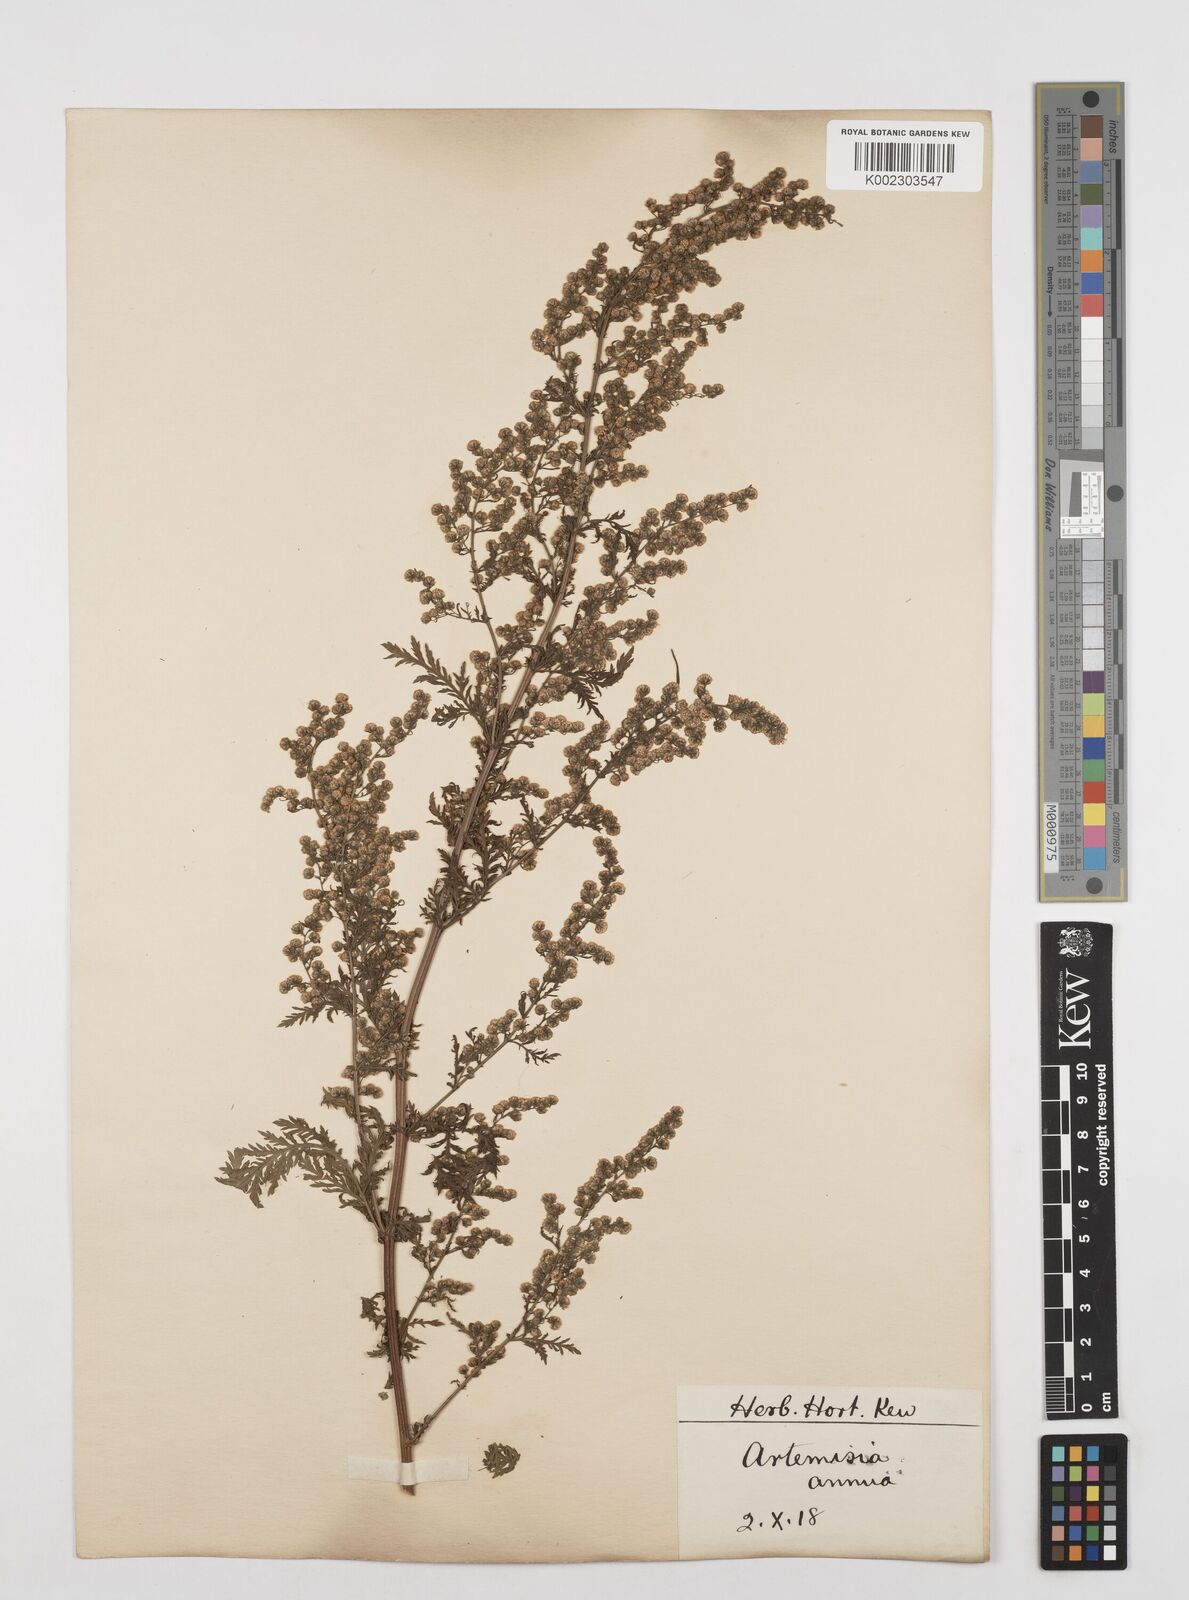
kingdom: Plantae
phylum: Tracheophyta
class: Magnoliopsida
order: Asterales
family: Asteraceae
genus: Artemisia
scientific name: Artemisia annua
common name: Sweet sagewort
